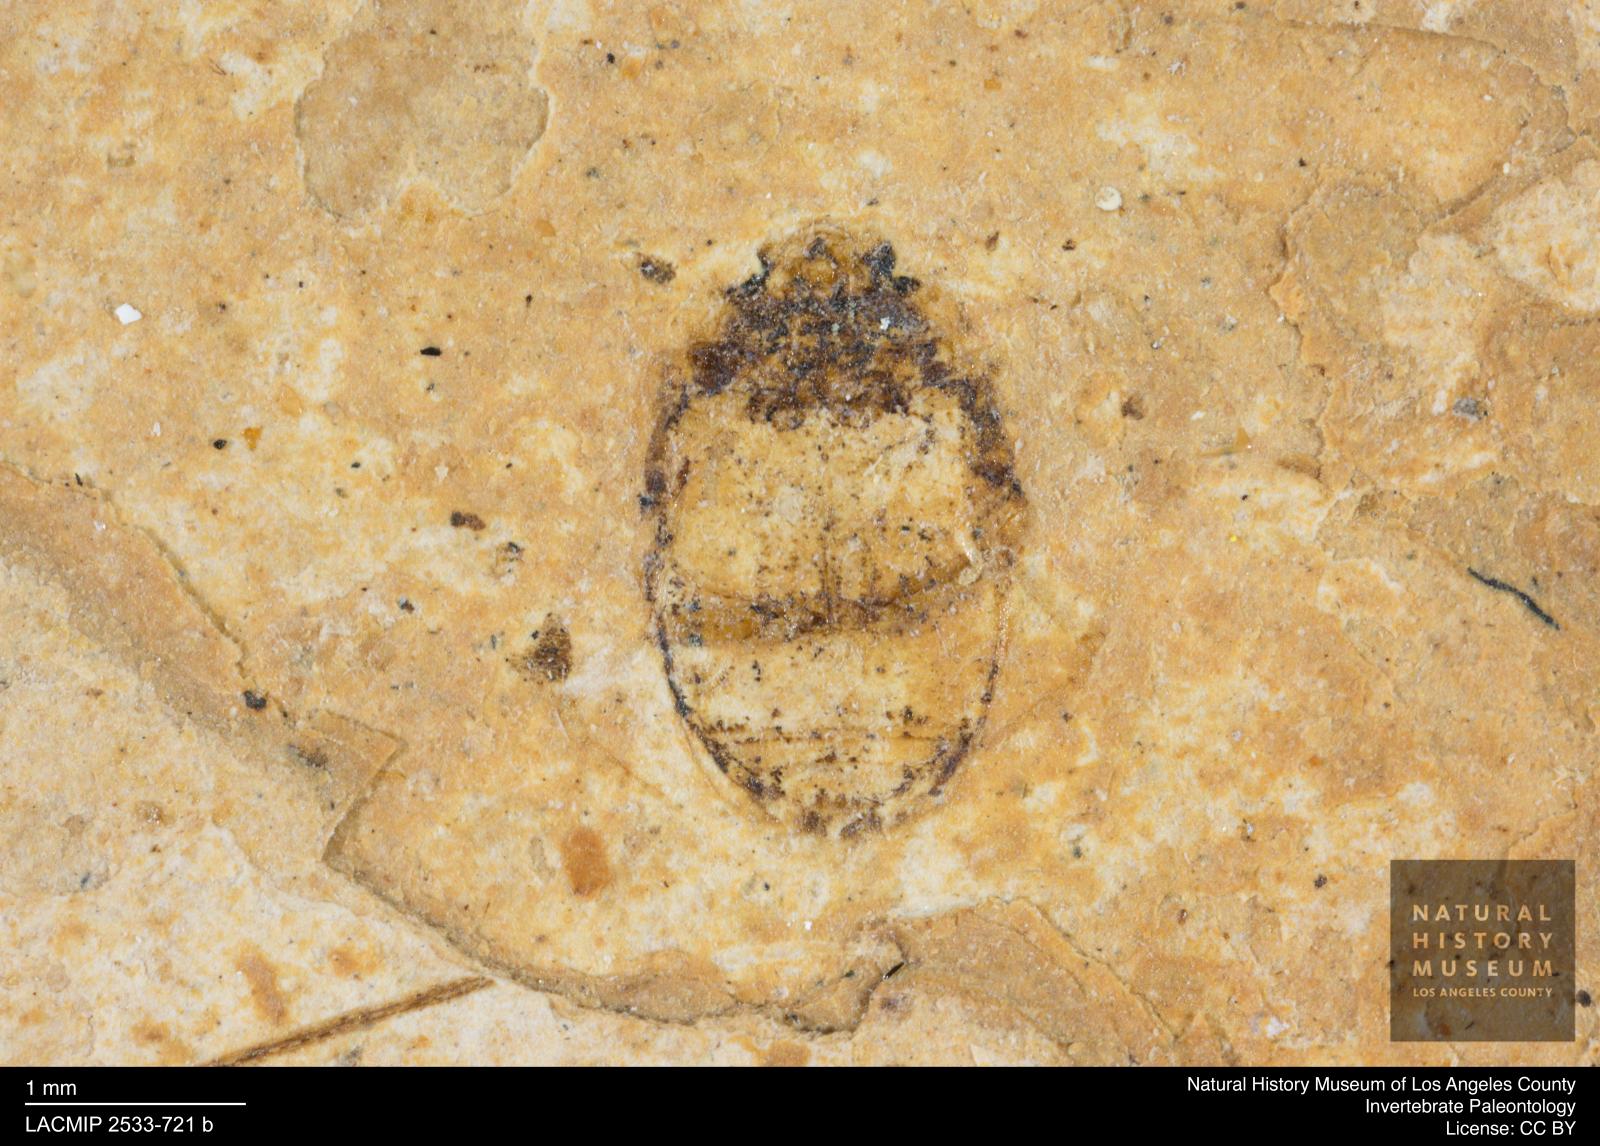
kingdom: Animalia
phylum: Arthropoda
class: Insecta
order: Coleoptera
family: Dytiscidae
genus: Oreodytes
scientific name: Oreodytes cryptolineatus
